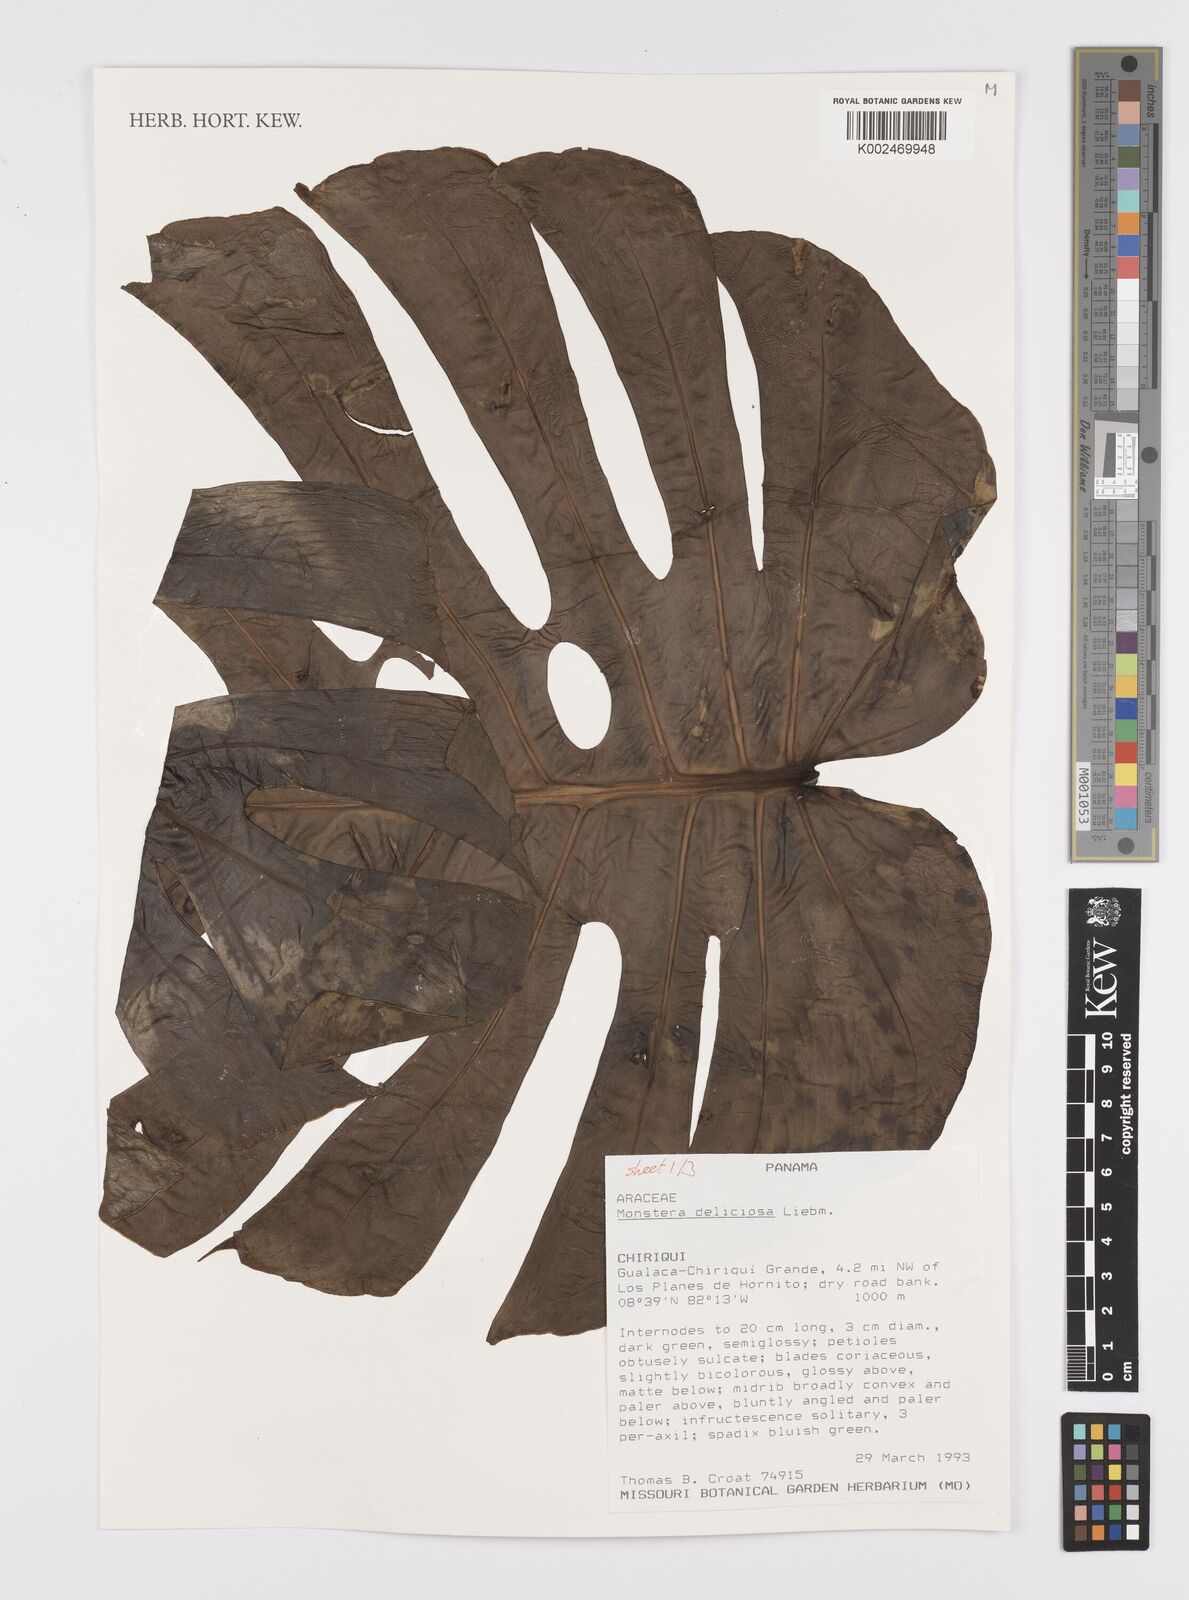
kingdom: Plantae
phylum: Tracheophyta
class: Liliopsida
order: Alismatales
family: Araceae
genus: Monstera
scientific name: Monstera deliciosa
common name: Cut-leaf-philodendron
